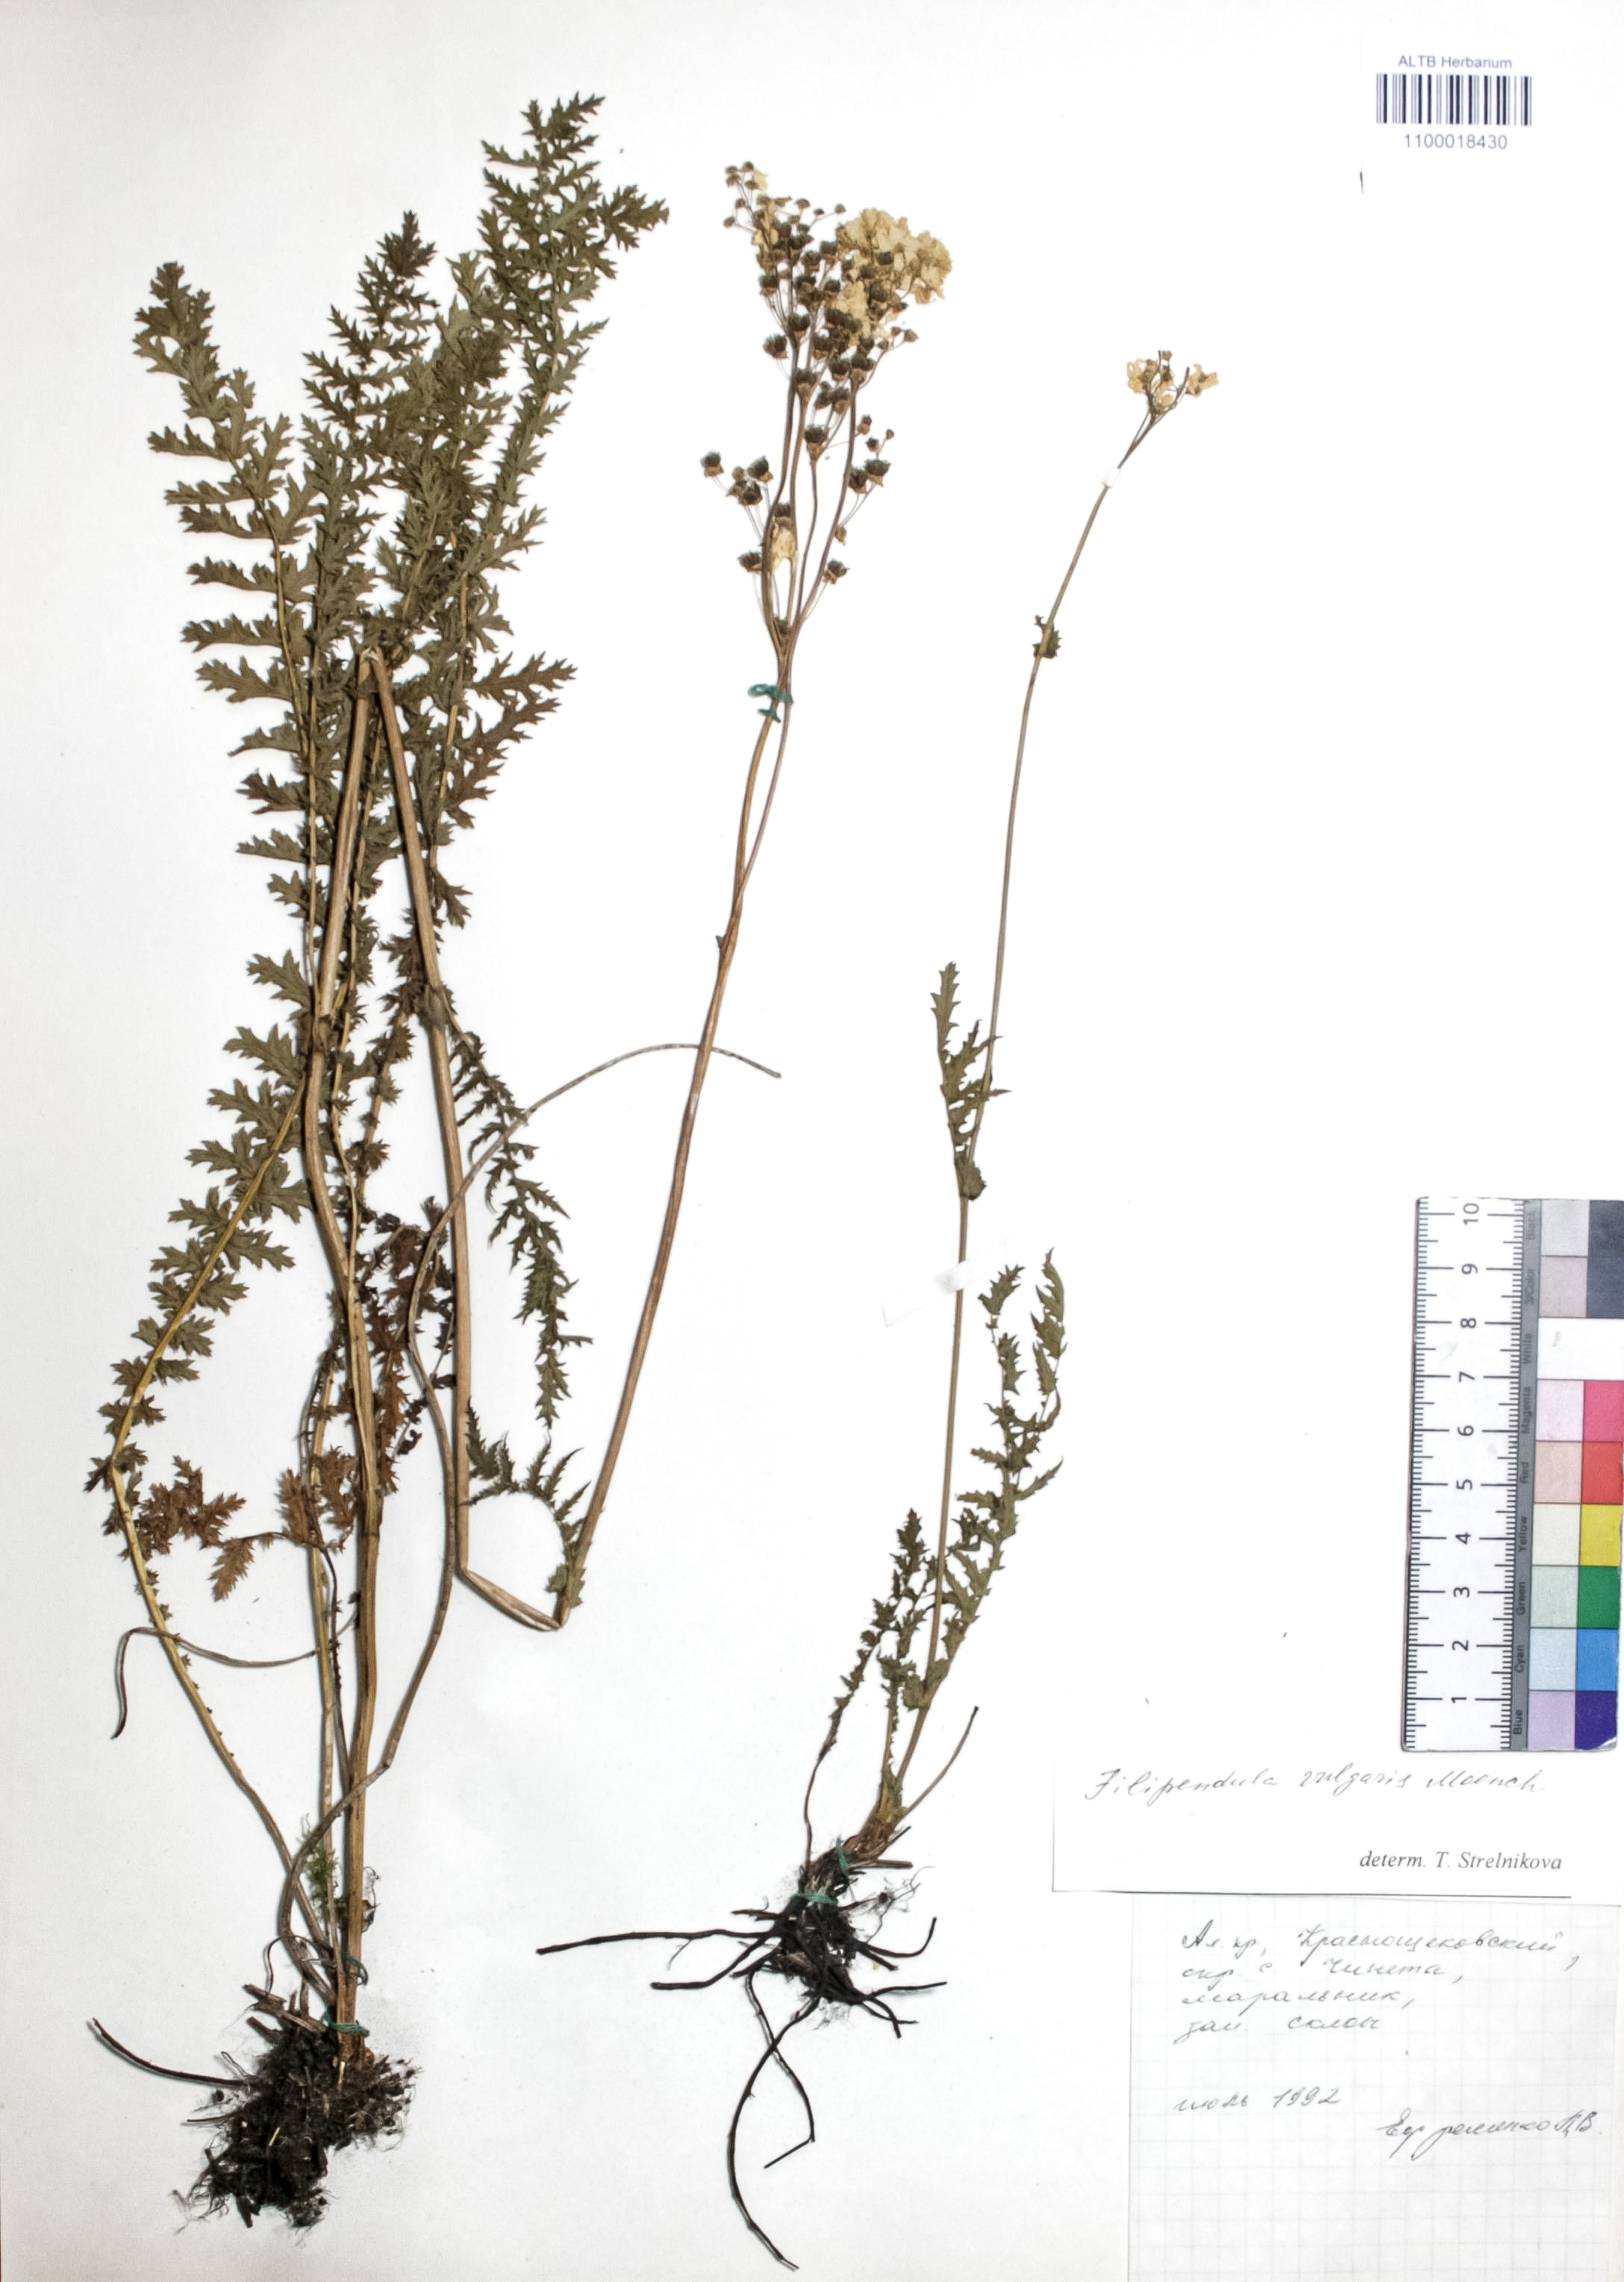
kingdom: Plantae
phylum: Tracheophyta
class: Magnoliopsida
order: Rosales
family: Rosaceae
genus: Filipendula
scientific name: Filipendula vulgaris
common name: Dropwort
